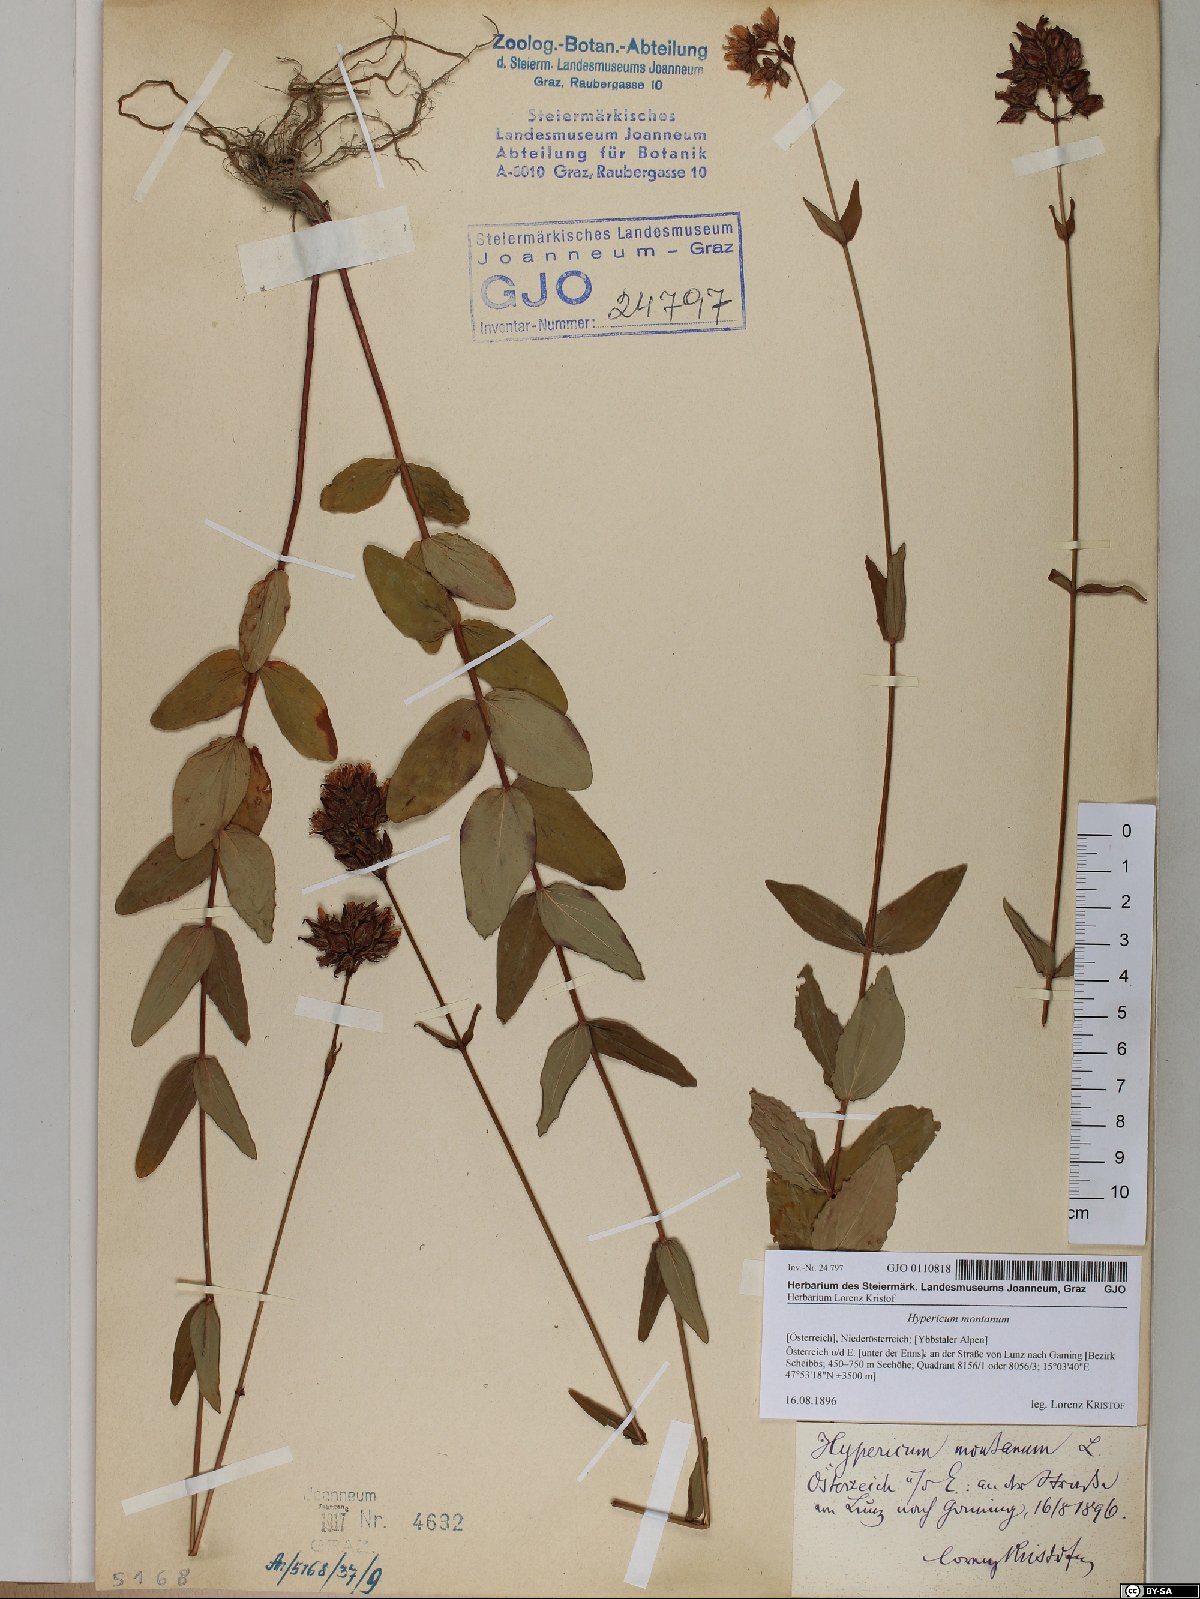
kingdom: Plantae
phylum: Tracheophyta
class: Magnoliopsida
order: Malpighiales
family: Hypericaceae
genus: Hypericum
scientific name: Hypericum montanum
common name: Pale st. john's-wort
